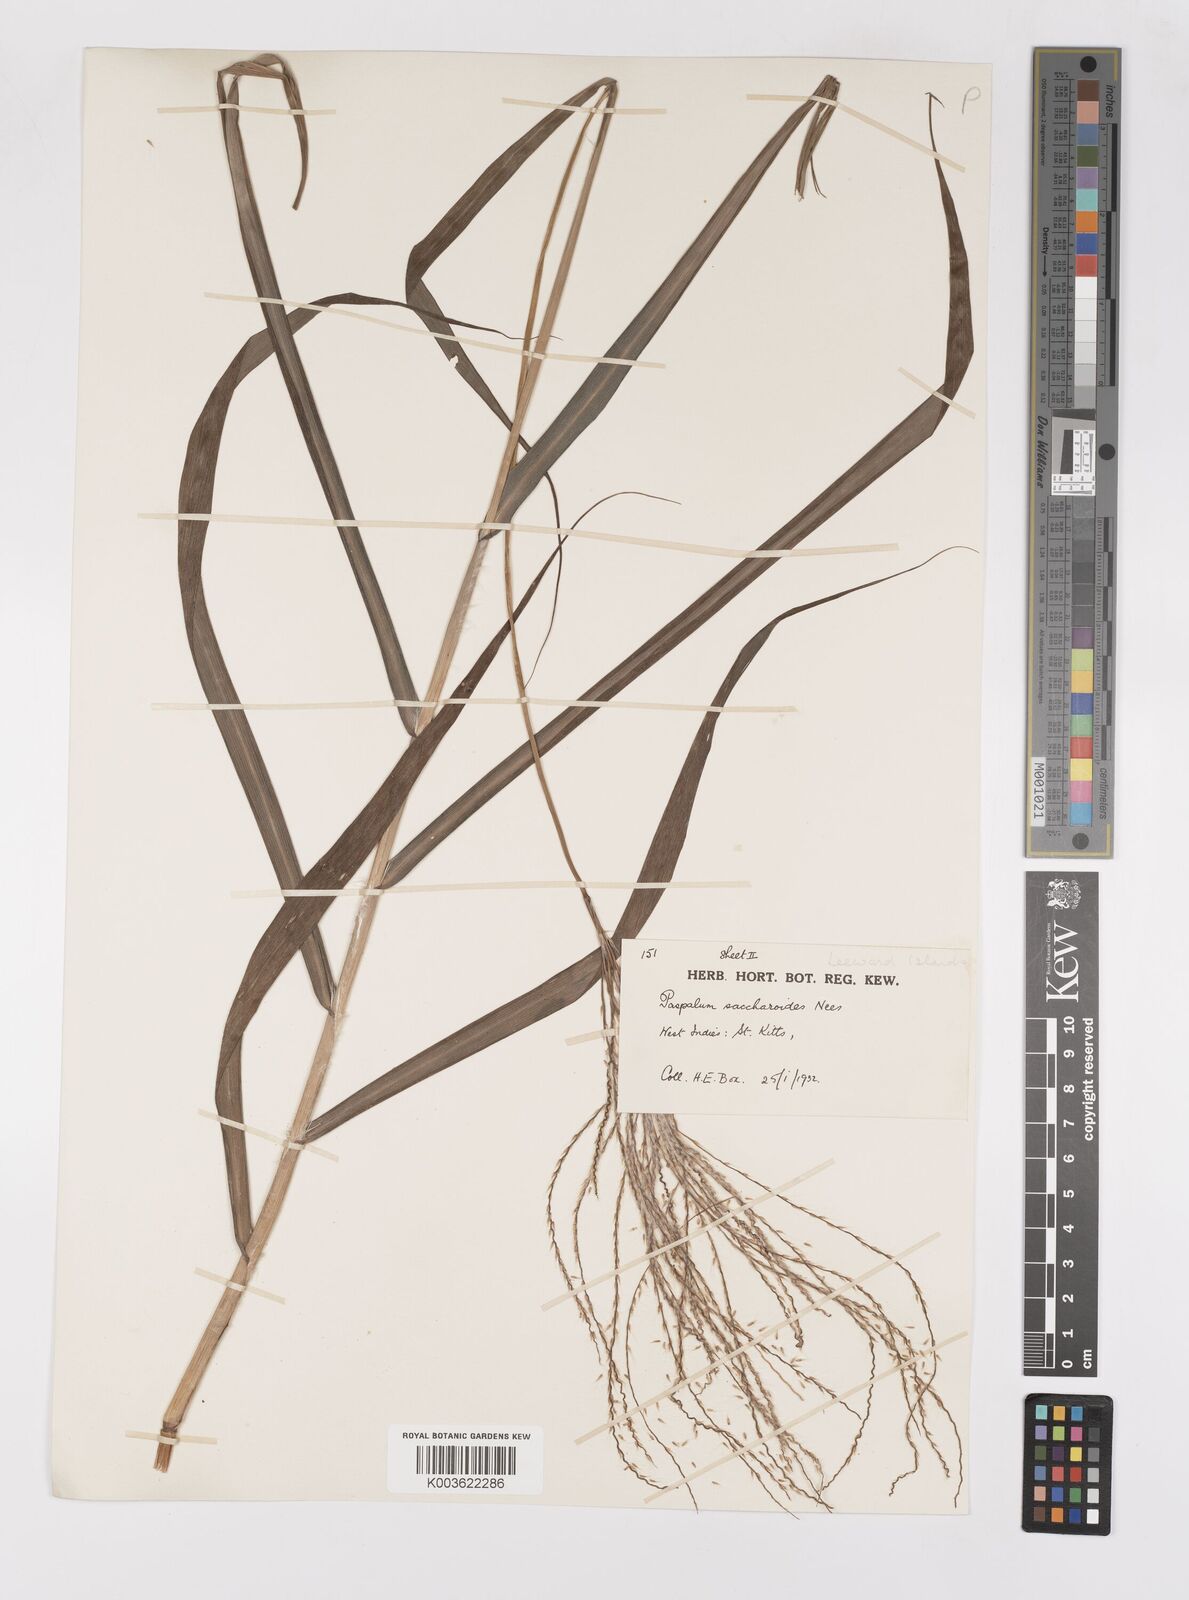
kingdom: Plantae
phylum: Tracheophyta
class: Liliopsida
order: Poales
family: Poaceae
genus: Paspalum
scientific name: Paspalum saccharoides
